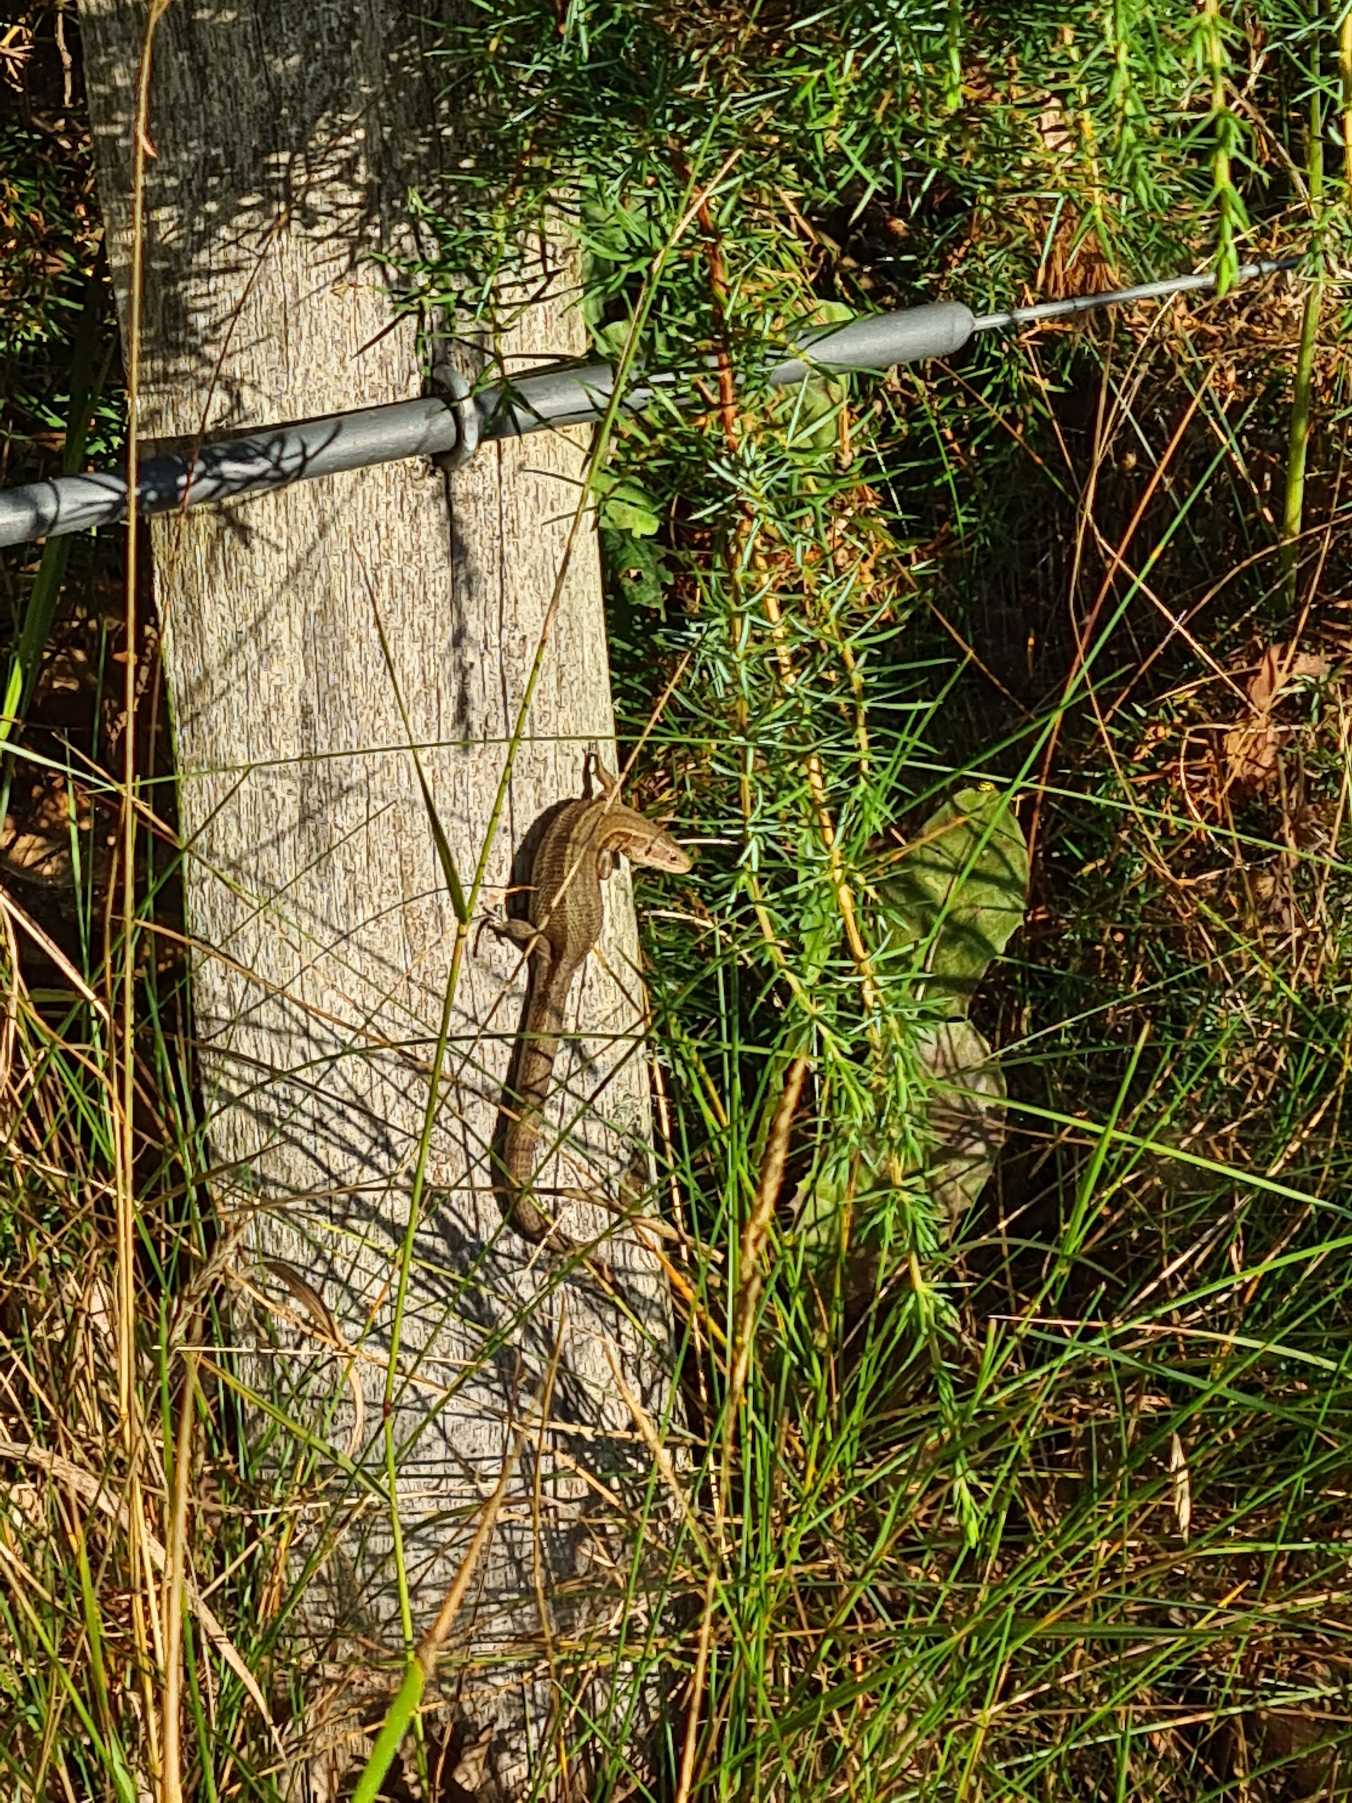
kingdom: Animalia
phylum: Chordata
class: Squamata
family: Lacertidae
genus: Zootoca
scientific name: Zootoca vivipara
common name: Skovfirben
